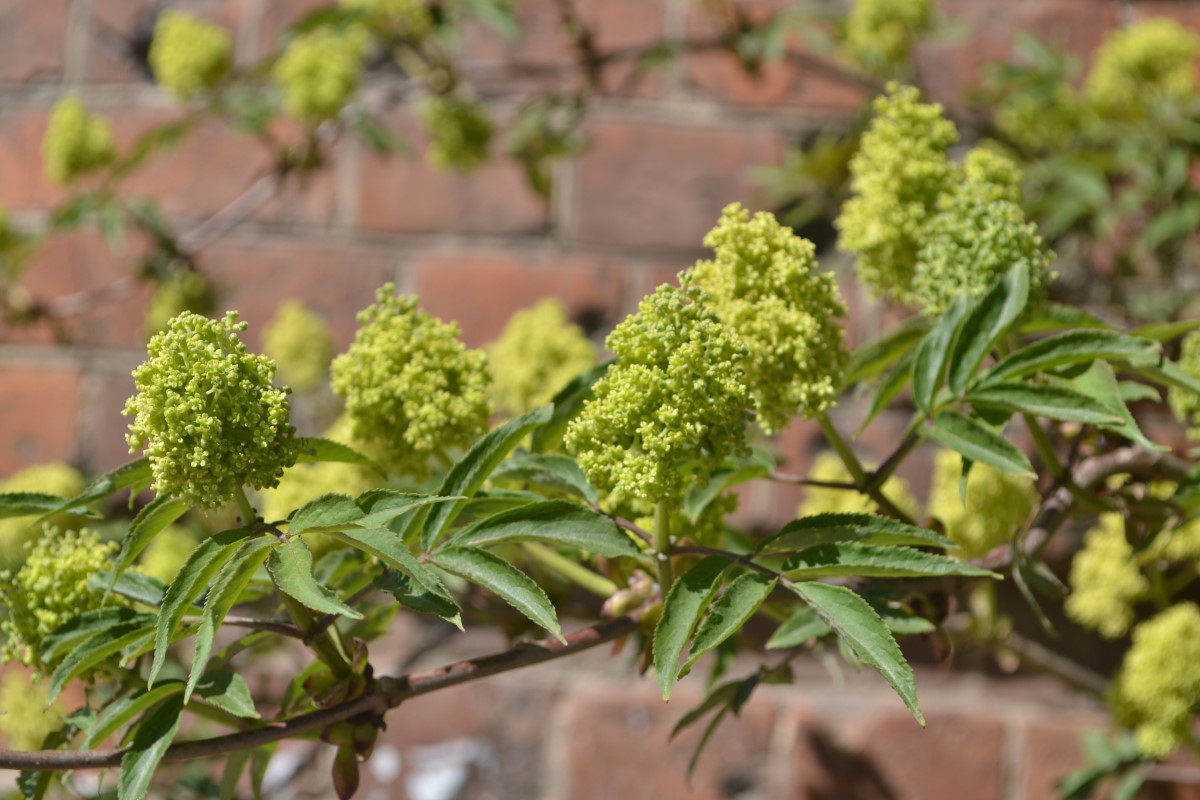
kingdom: Plantae
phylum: Tracheophyta
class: Magnoliopsida
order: Dipsacales
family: Viburnaceae
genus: Sambucus
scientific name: Sambucus racemosa
